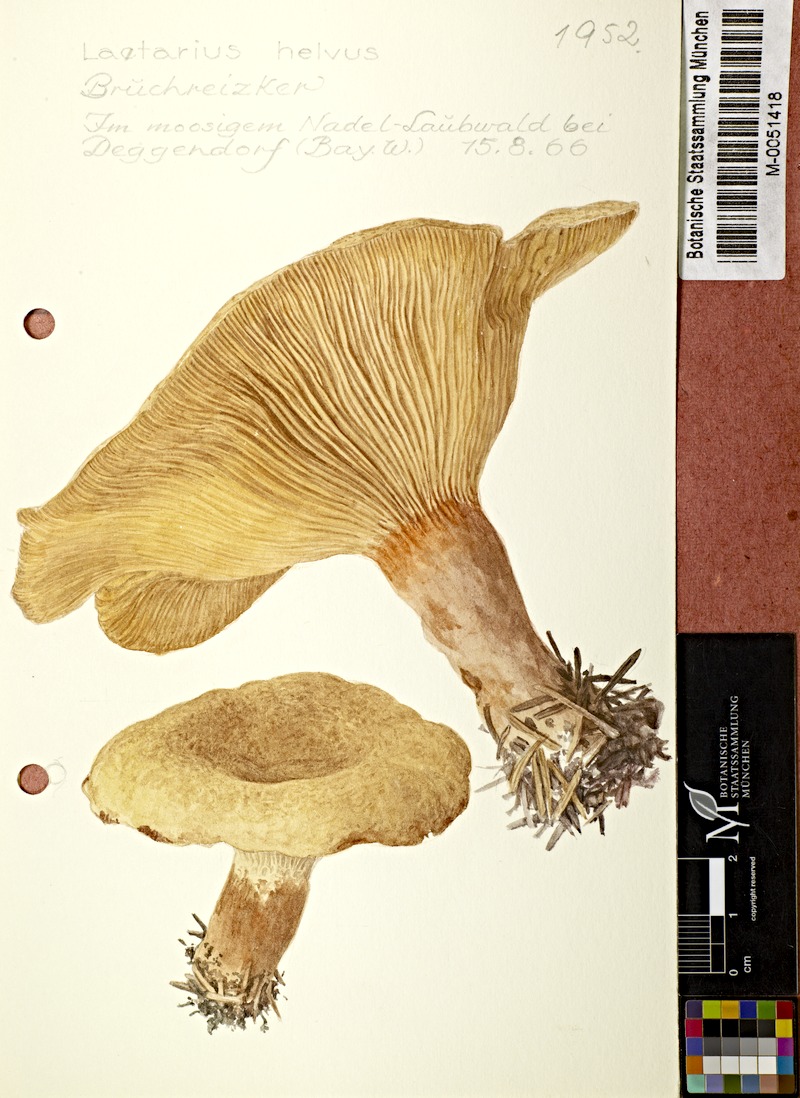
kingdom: Fungi
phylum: Basidiomycota
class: Agaricomycetes
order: Russulales
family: Russulaceae
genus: Lactarius
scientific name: Lactarius helvus
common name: Fenugreek milkcap
